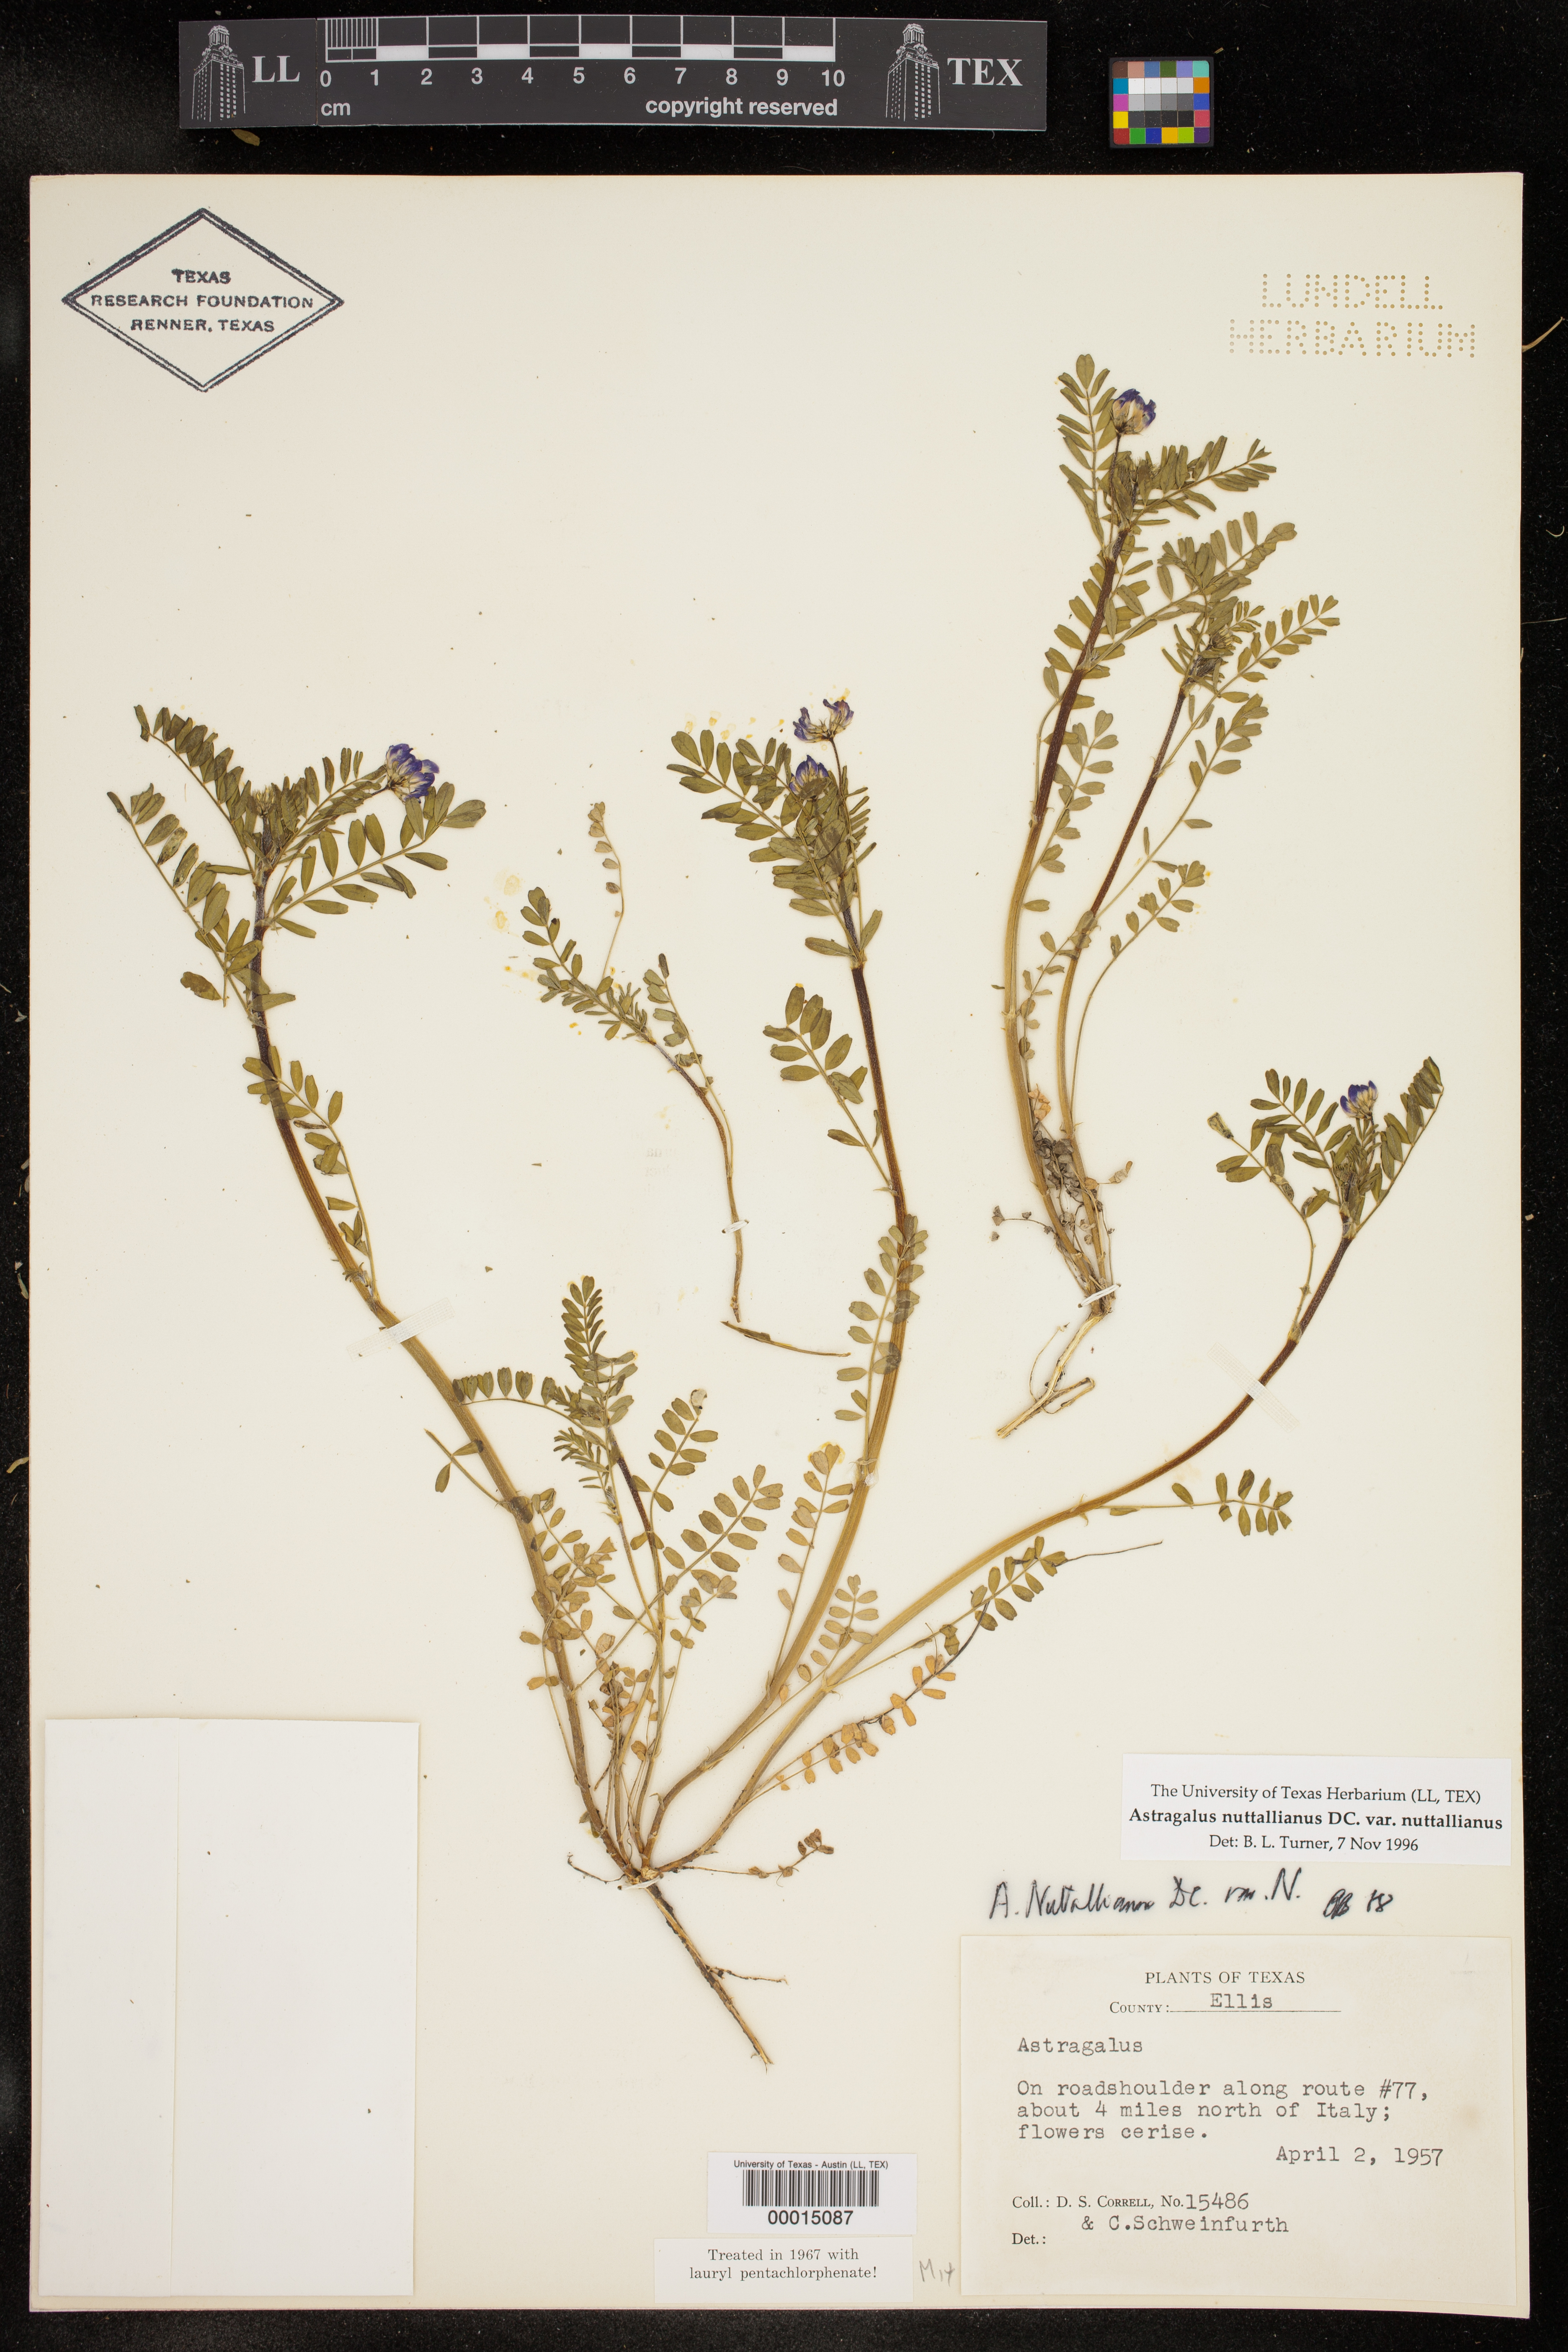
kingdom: Plantae
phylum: Tracheophyta
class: Magnoliopsida
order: Fabales
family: Fabaceae
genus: Astragalus
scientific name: Astragalus nuttallianus
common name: Smallflowered milkvetch
